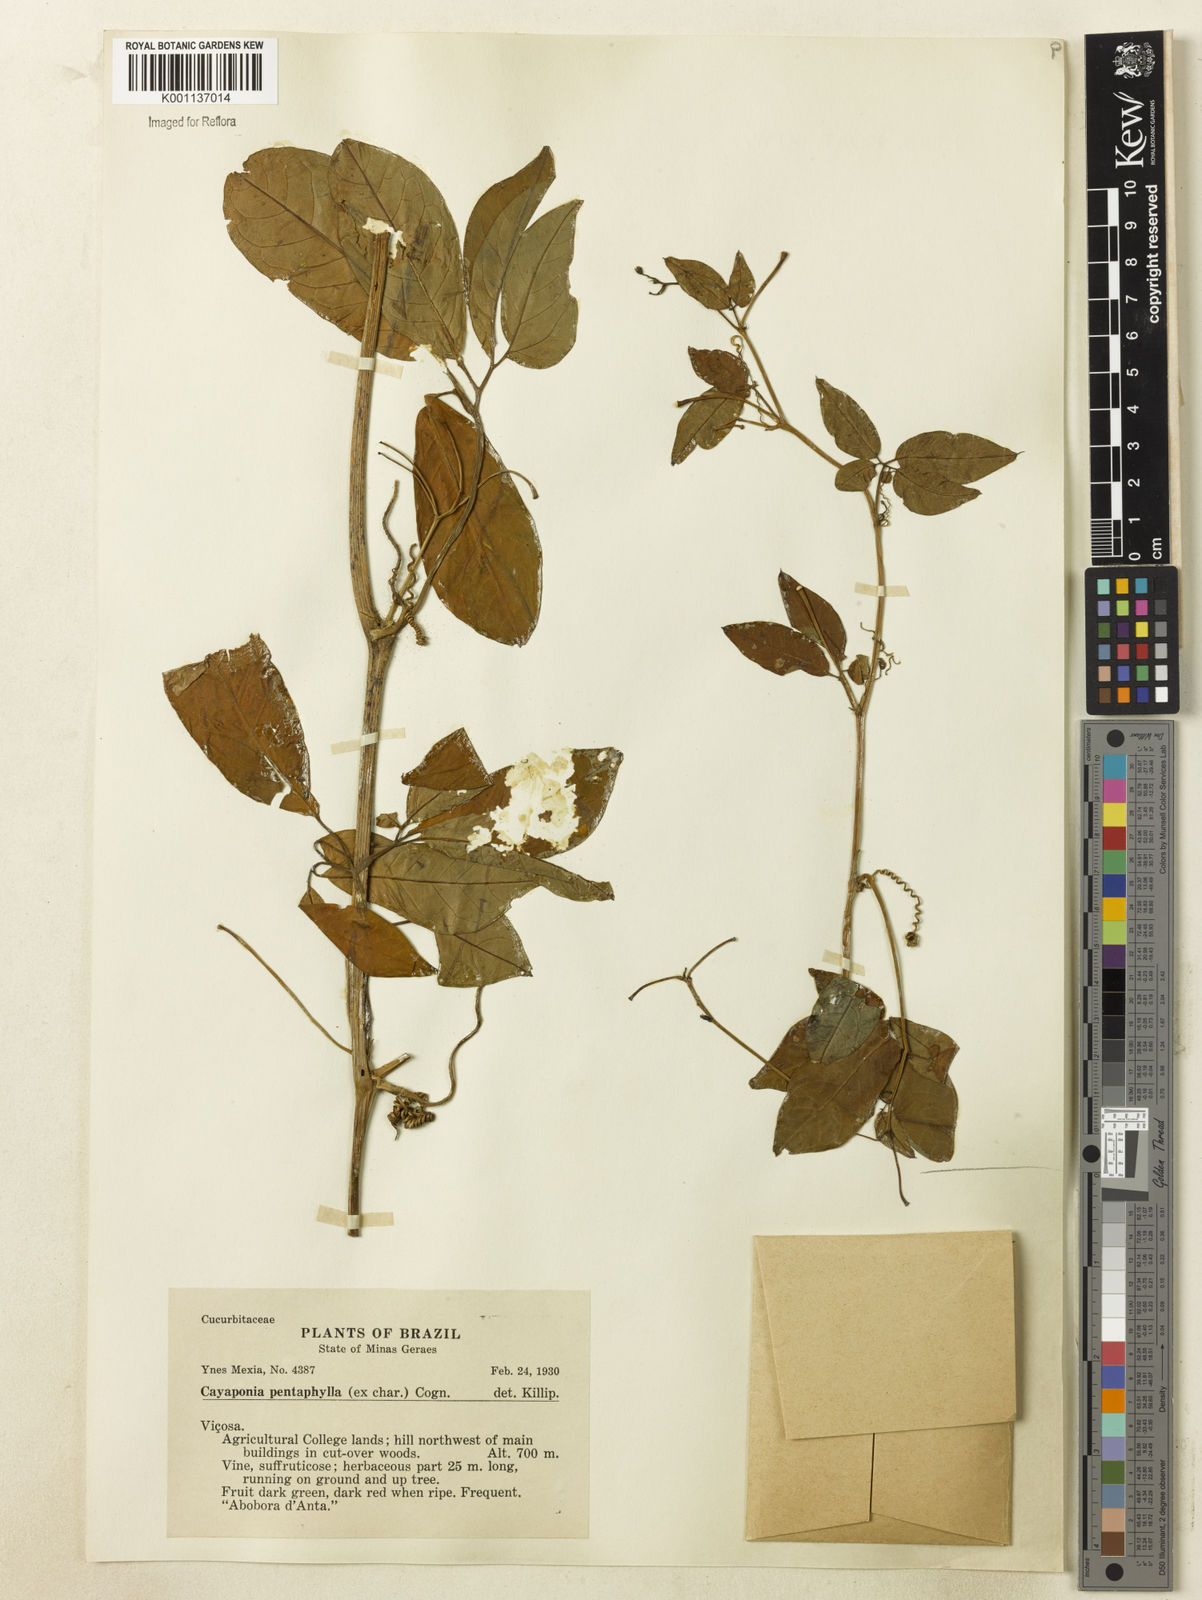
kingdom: Plantae
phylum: Tracheophyta
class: Magnoliopsida
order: Cucurbitales
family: Cucurbitaceae
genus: Cayaponia
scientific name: Cayaponia trifoliolata
